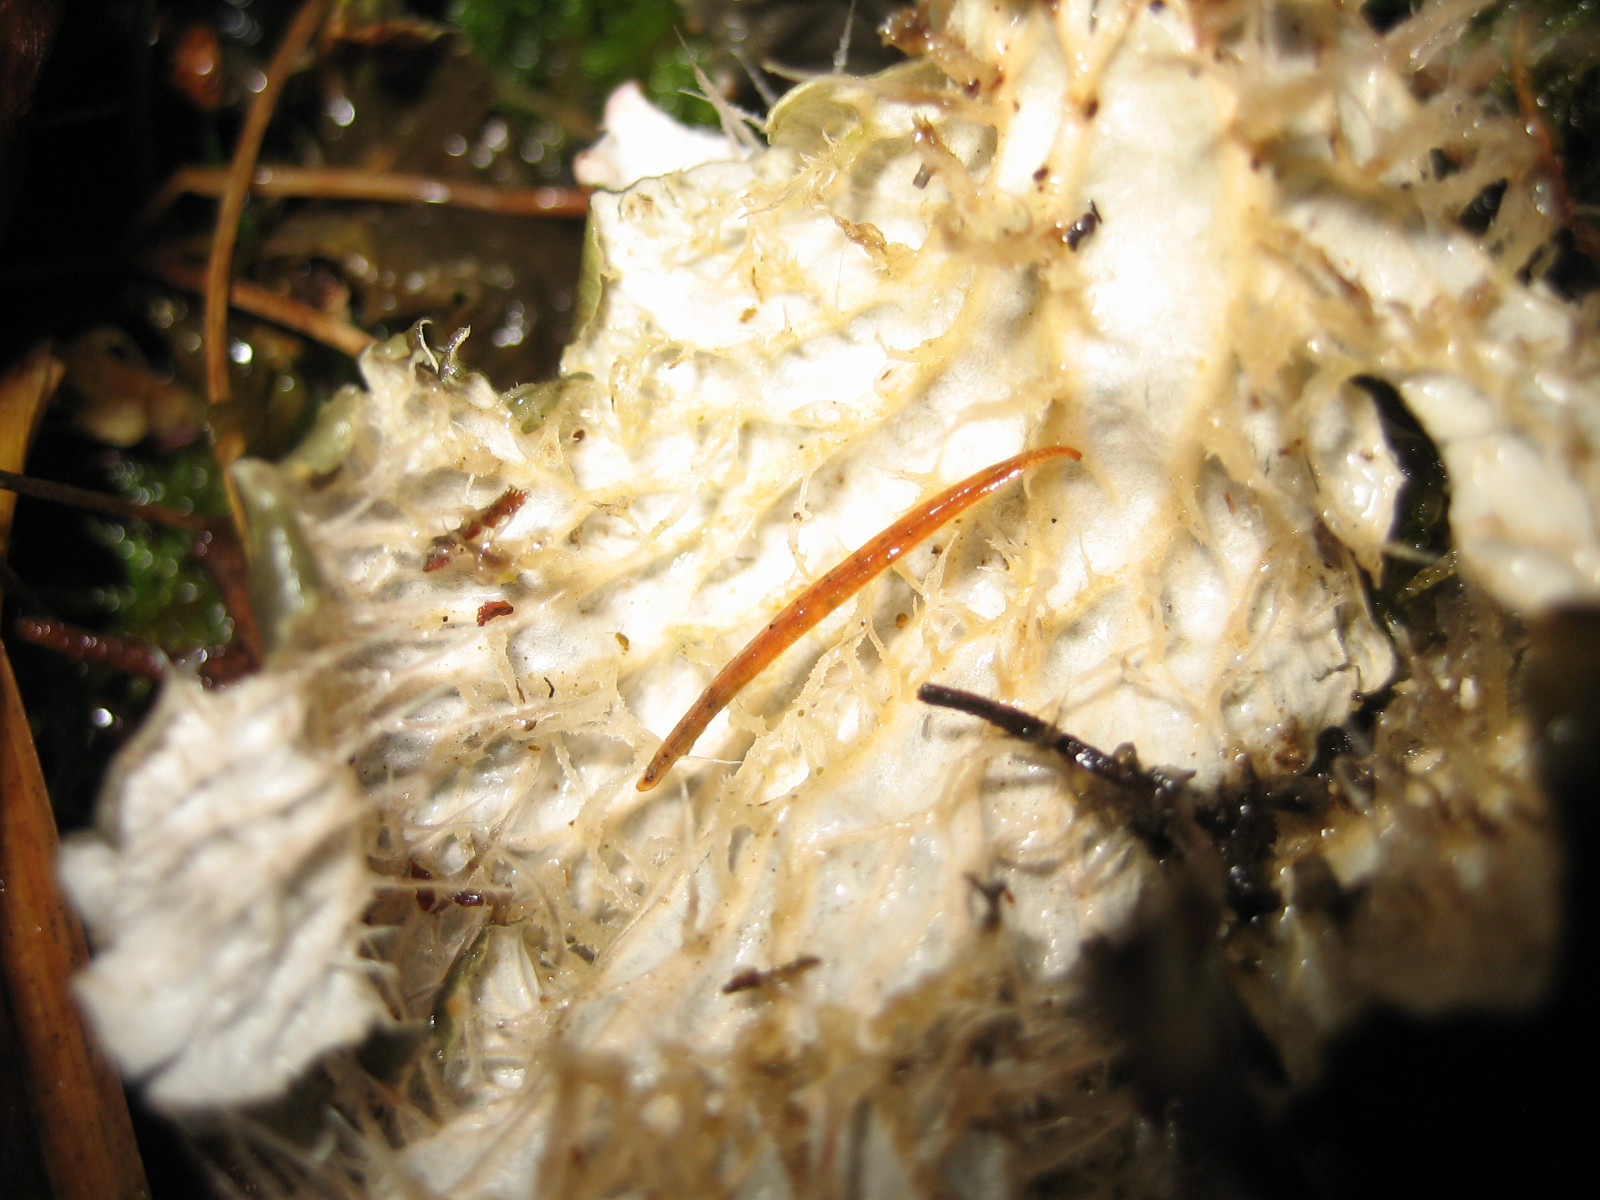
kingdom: Fungi
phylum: Ascomycota
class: Lecanoromycetes
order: Peltigerales
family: Peltigeraceae
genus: Peltigera
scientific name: Peltigera membranacea
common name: tynd skjoldlav
